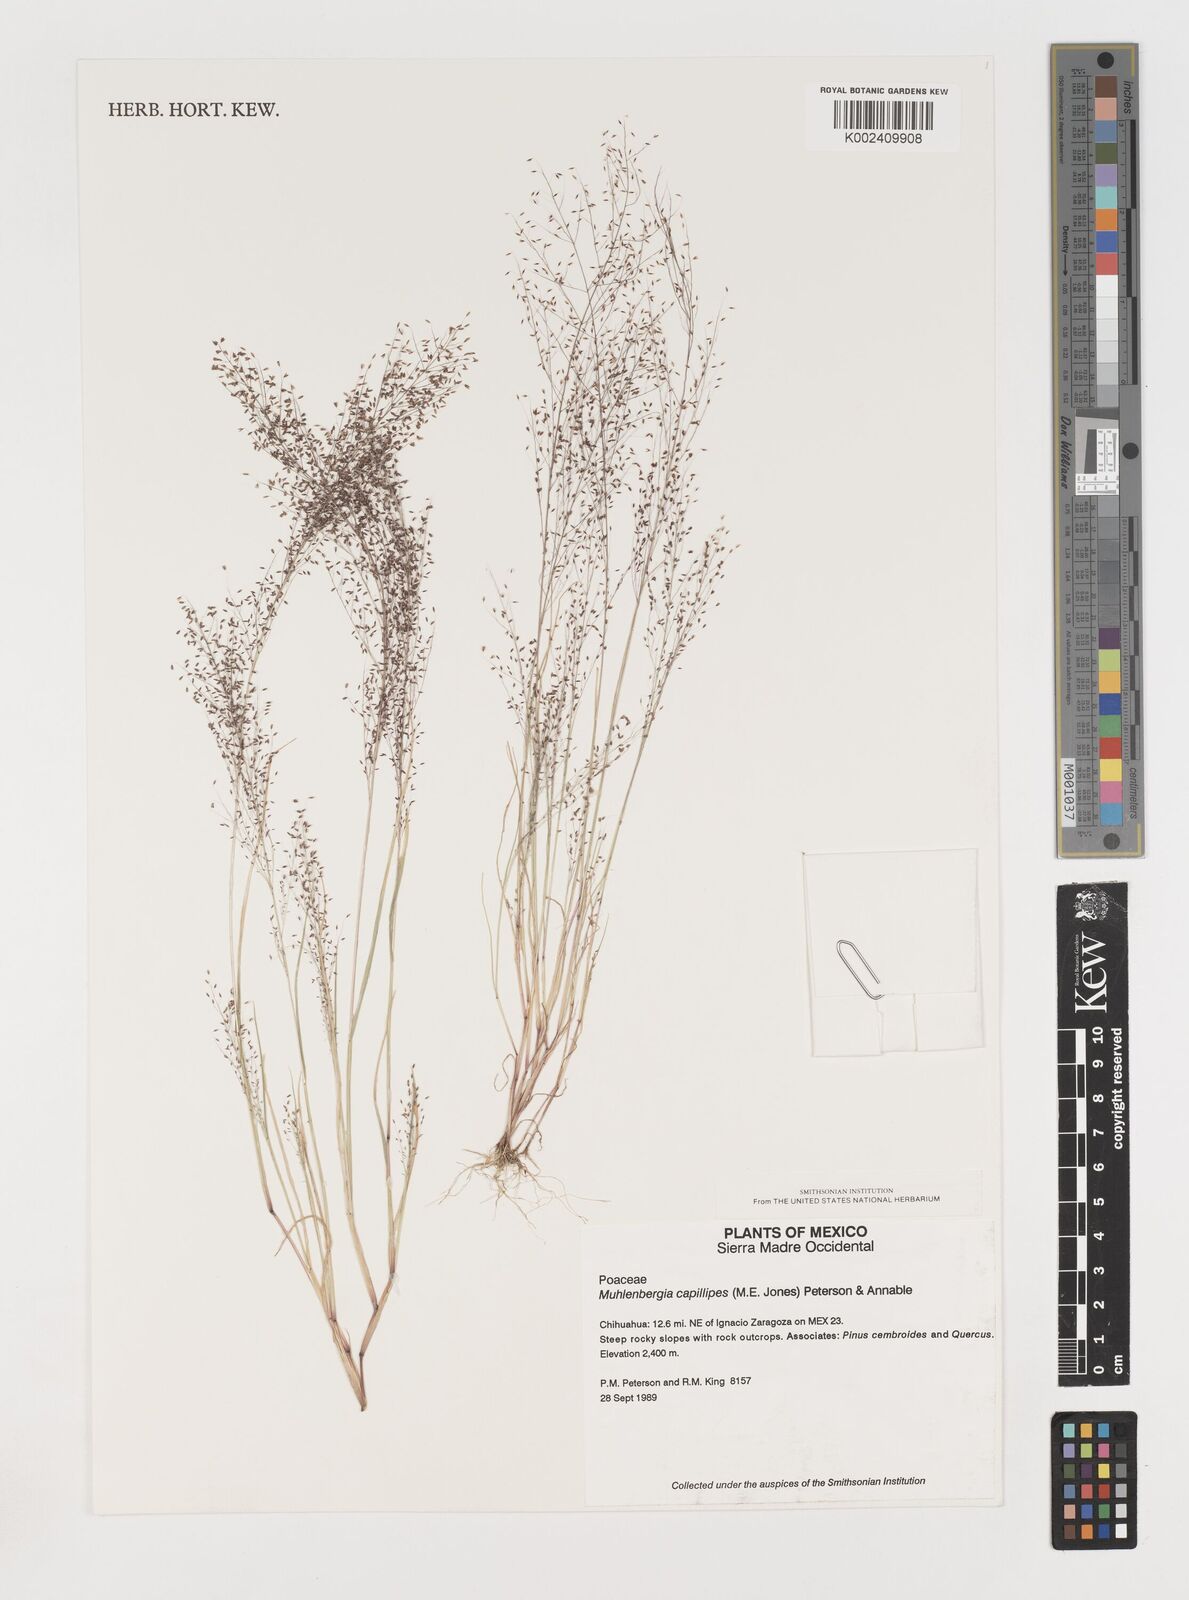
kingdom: Plantae
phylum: Tracheophyta
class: Liliopsida
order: Poales
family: Poaceae
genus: Muhlenbergia
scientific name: Muhlenbergia capillipes
